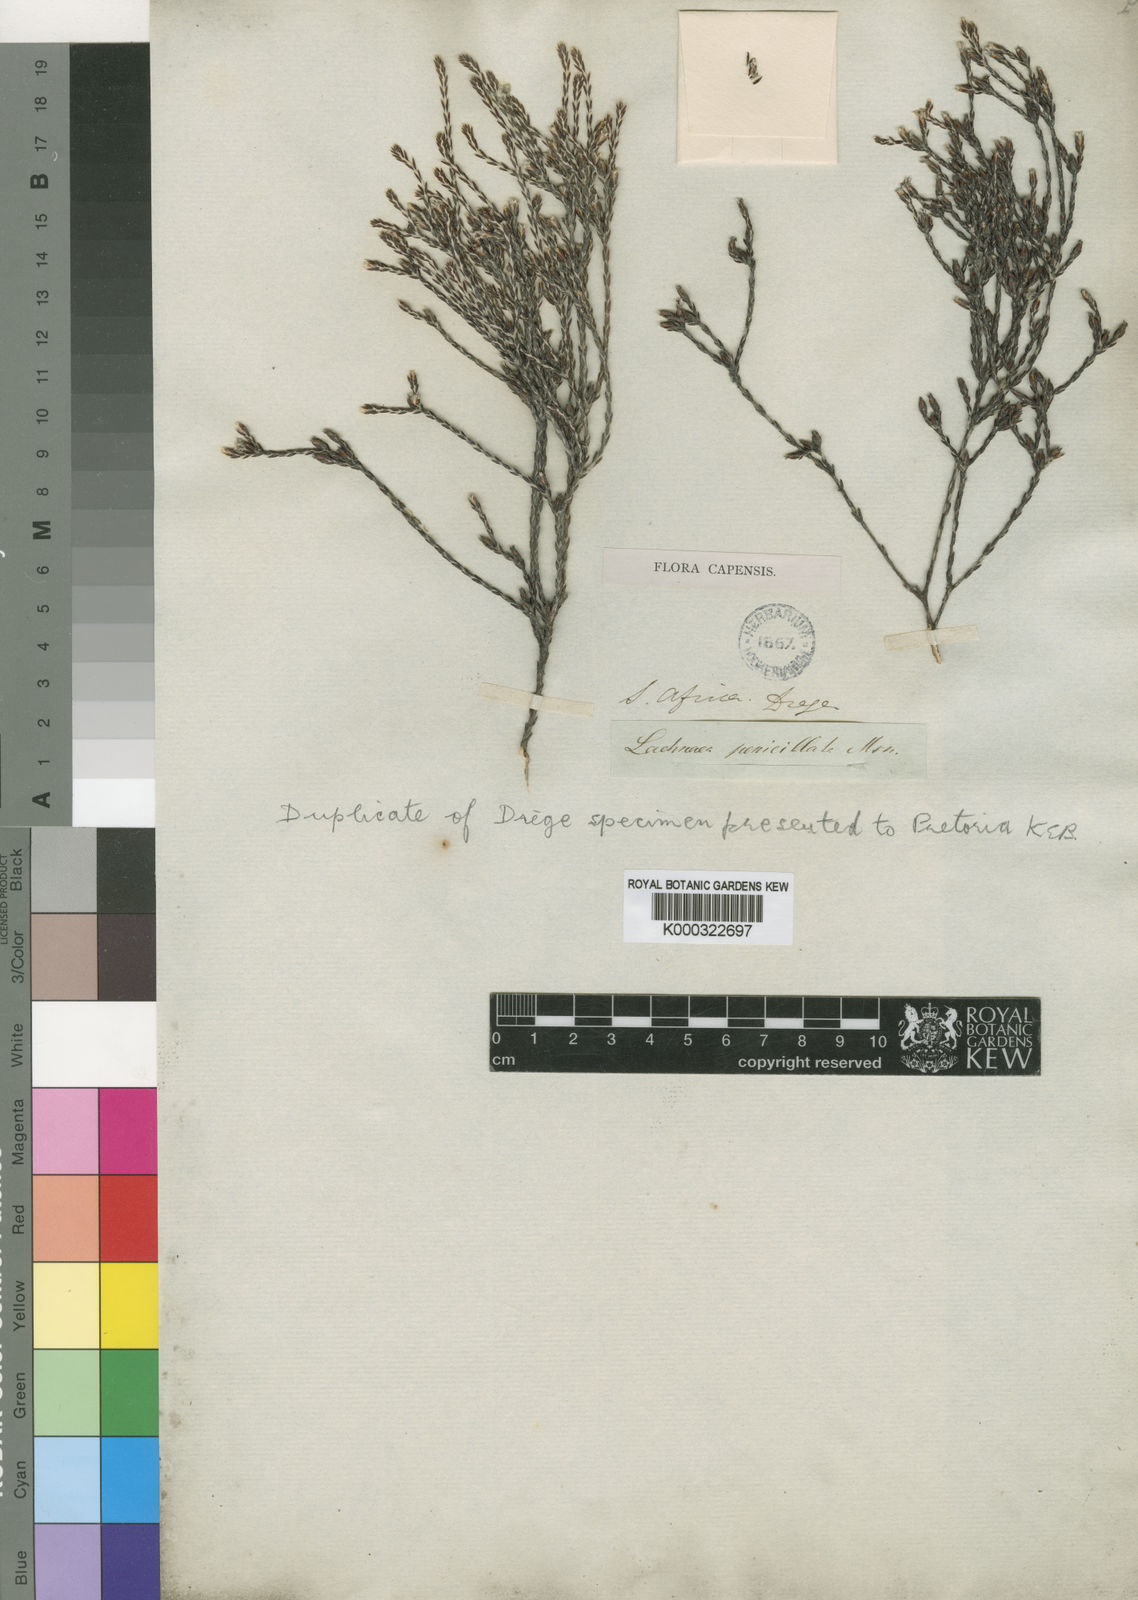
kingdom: Plantae
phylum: Tracheophyta
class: Magnoliopsida
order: Malvales
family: Thymelaeaceae
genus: Lachnaea
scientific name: Lachnaea penicillata
